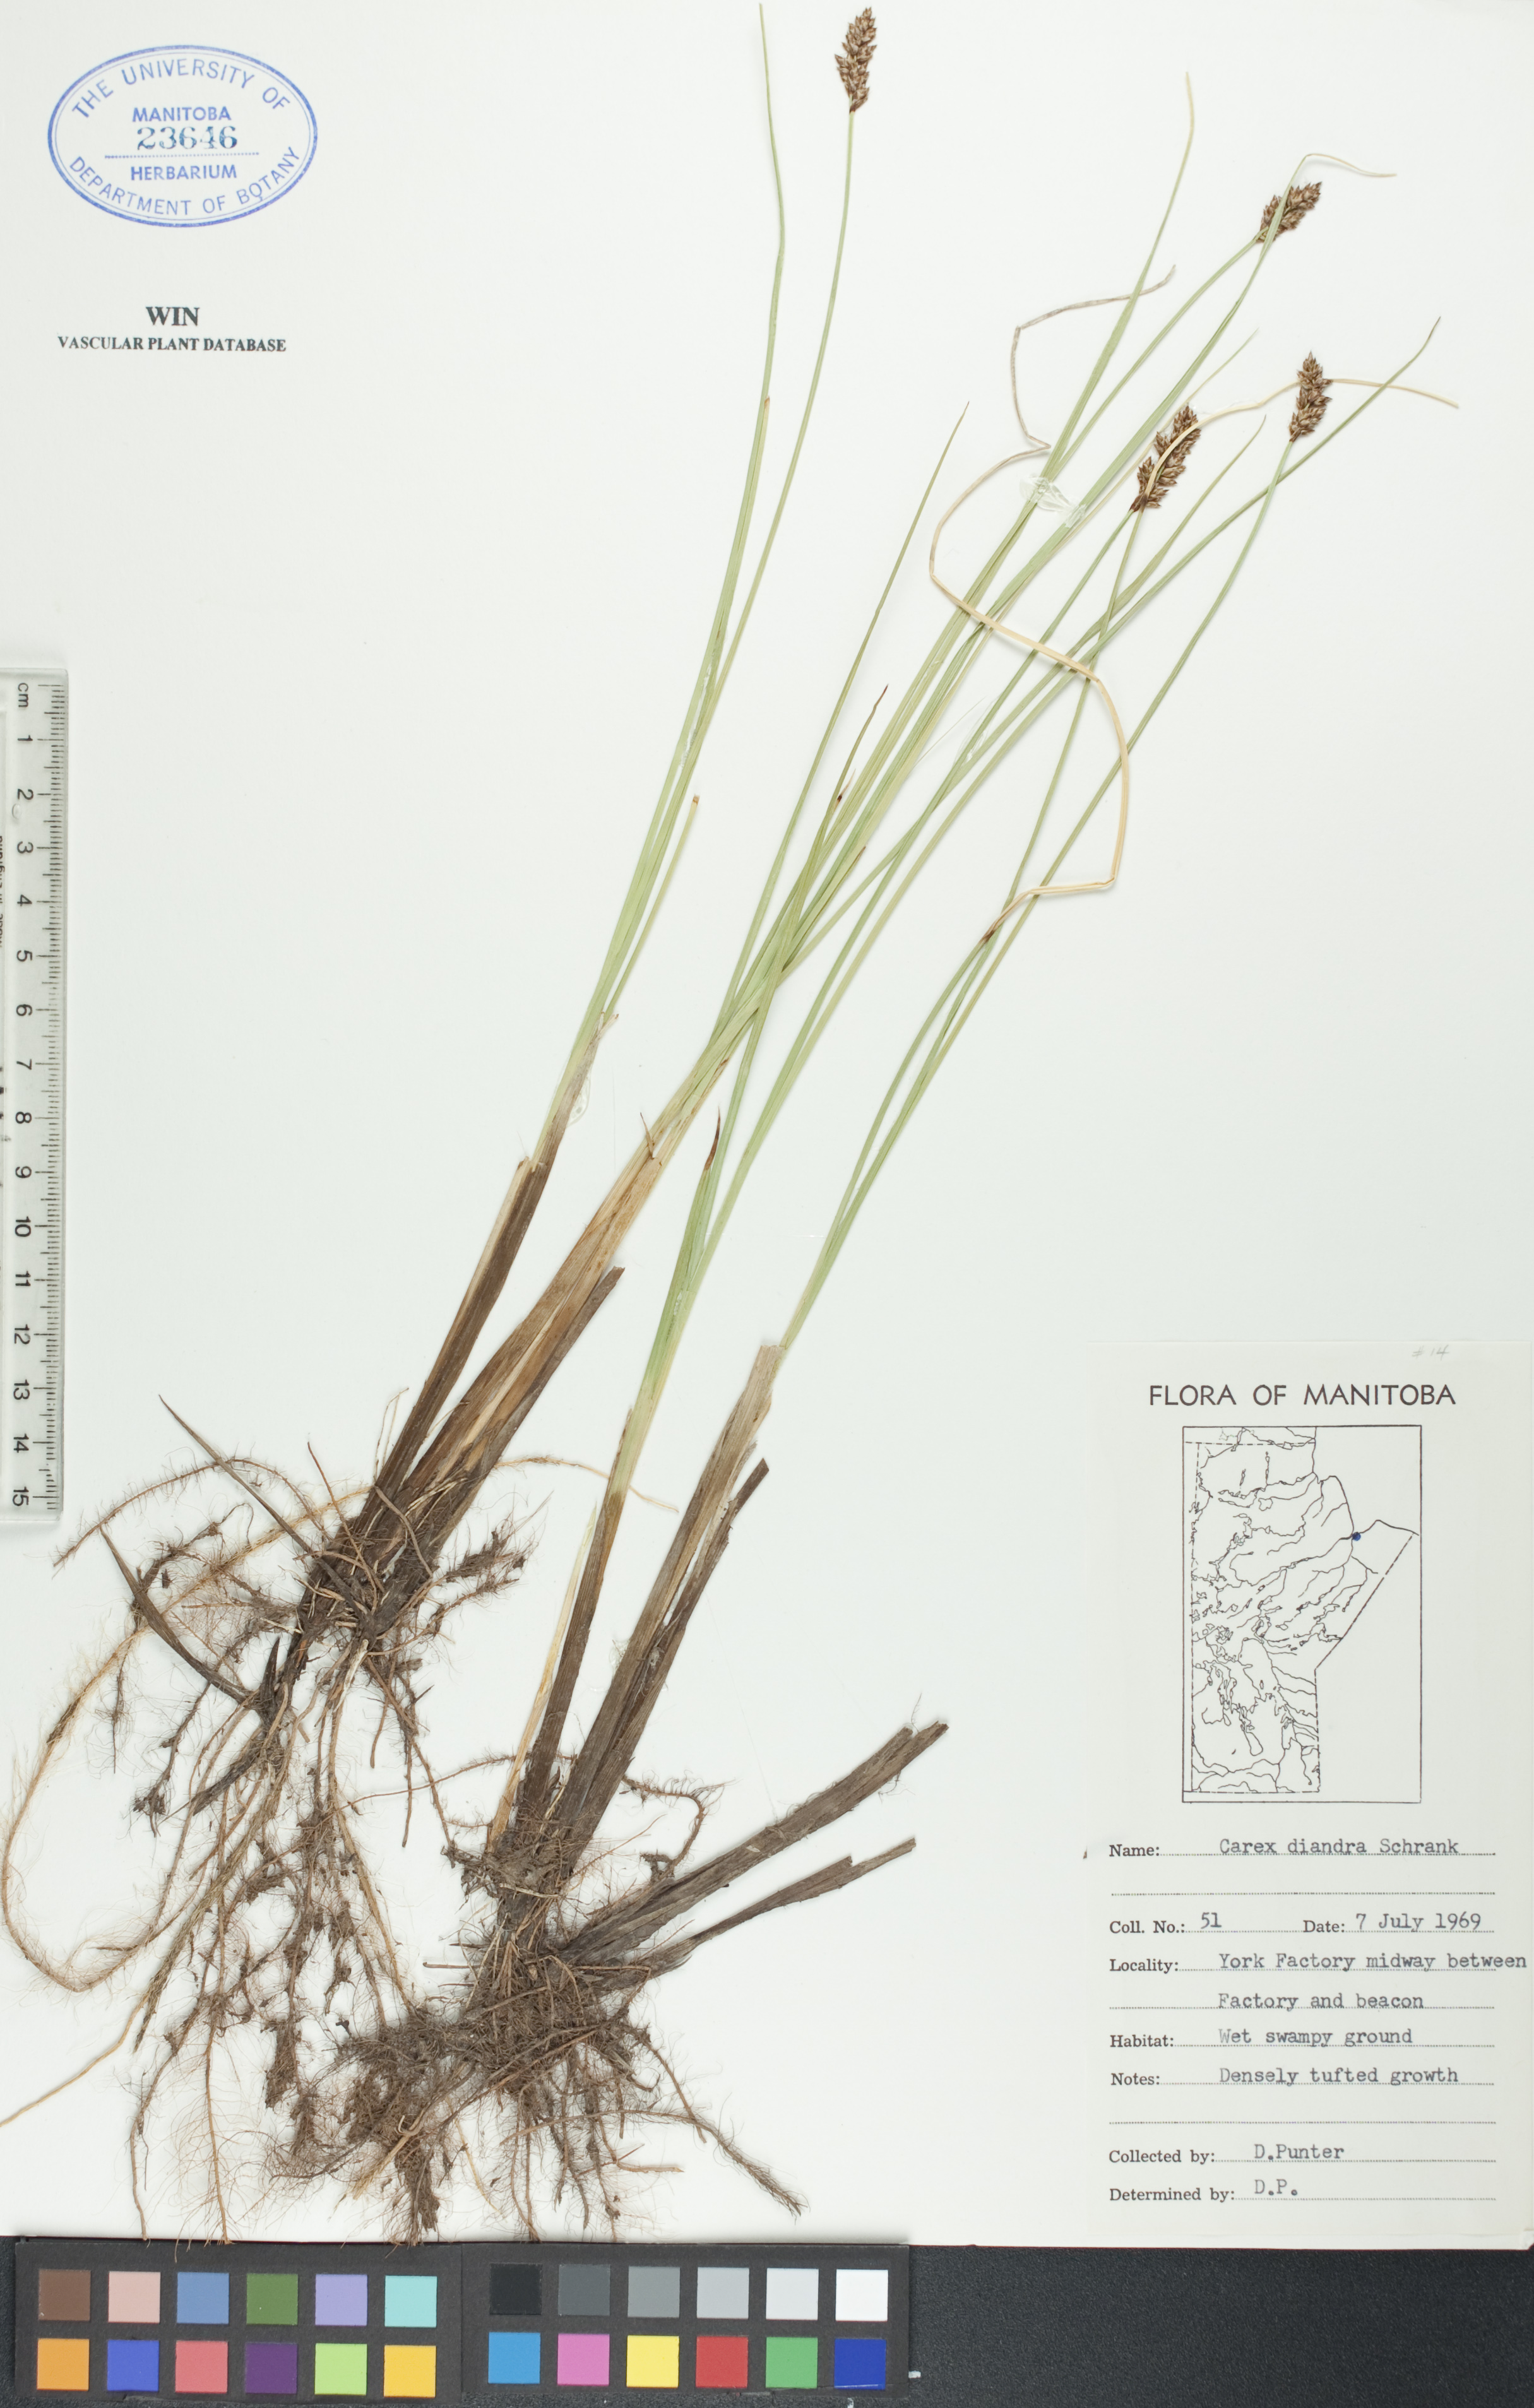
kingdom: Plantae
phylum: Tracheophyta
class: Liliopsida
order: Poales
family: Cyperaceae
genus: Carex
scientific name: Carex diandra
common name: Lesser tussock-sedge
